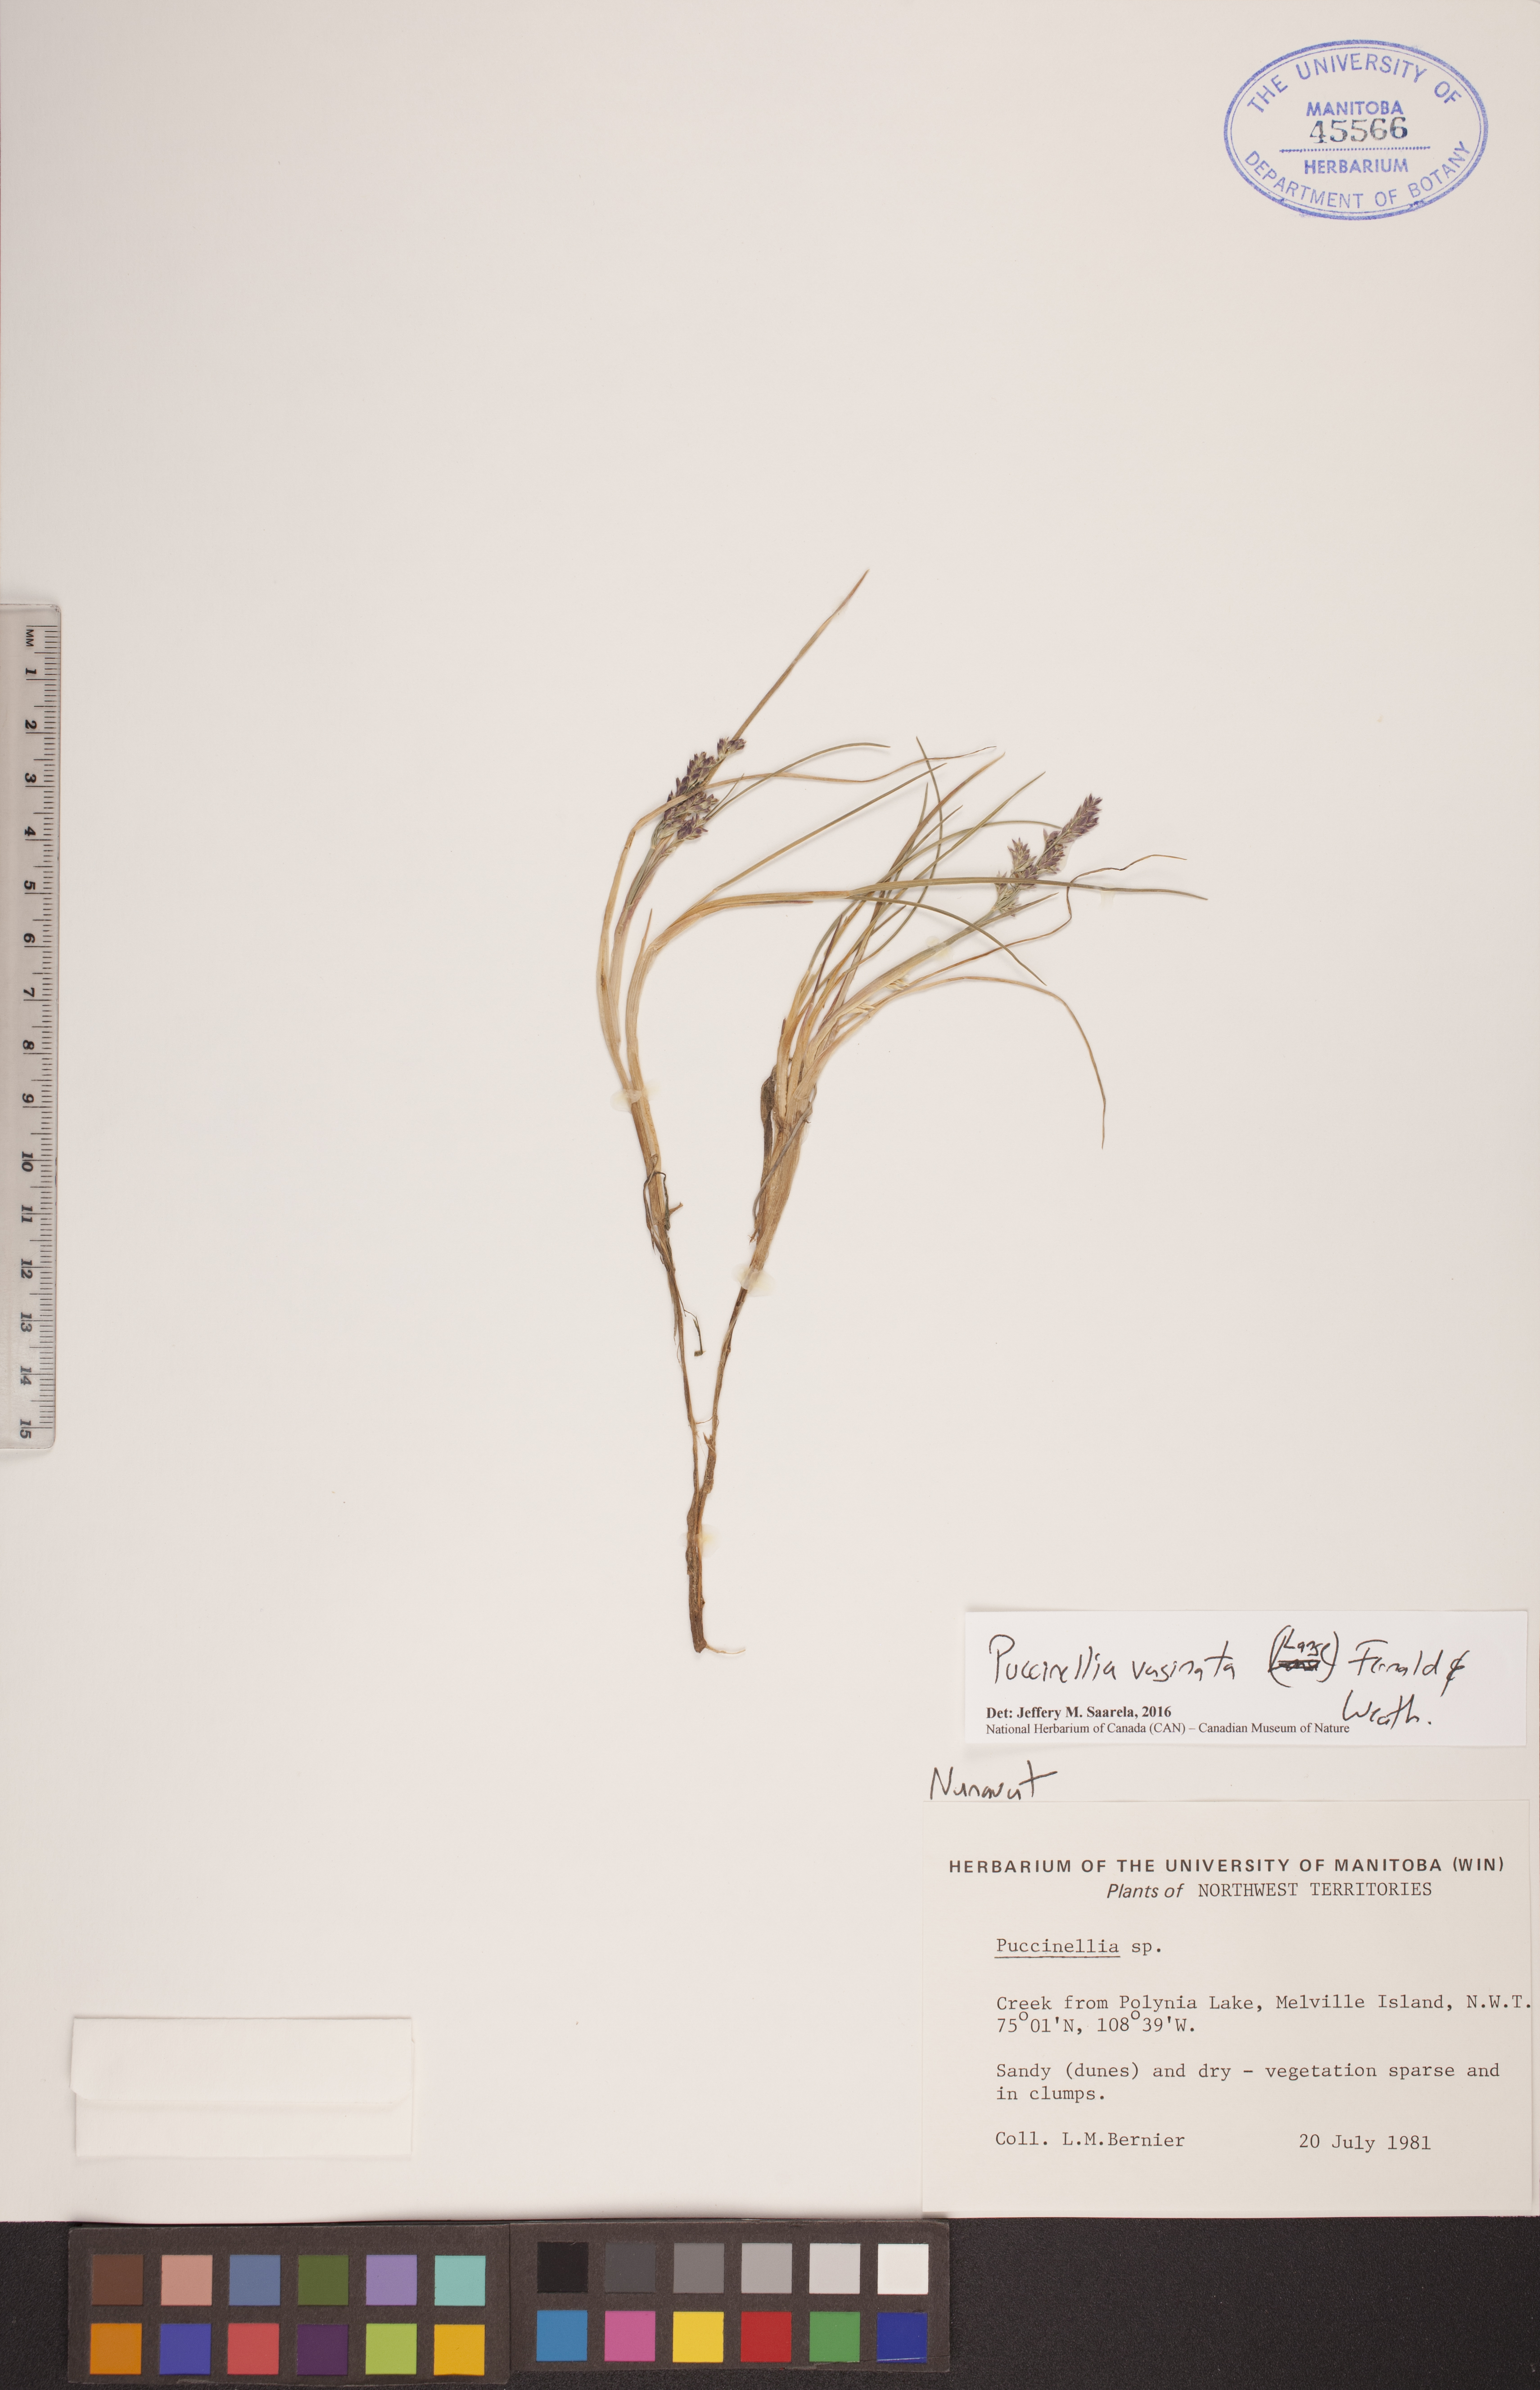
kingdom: Plantae
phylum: Tracheophyta
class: Liliopsida
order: Poales
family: Poaceae
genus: Puccinellia
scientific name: Puccinellia vaginata
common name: Arctic tussock alkaligrass
